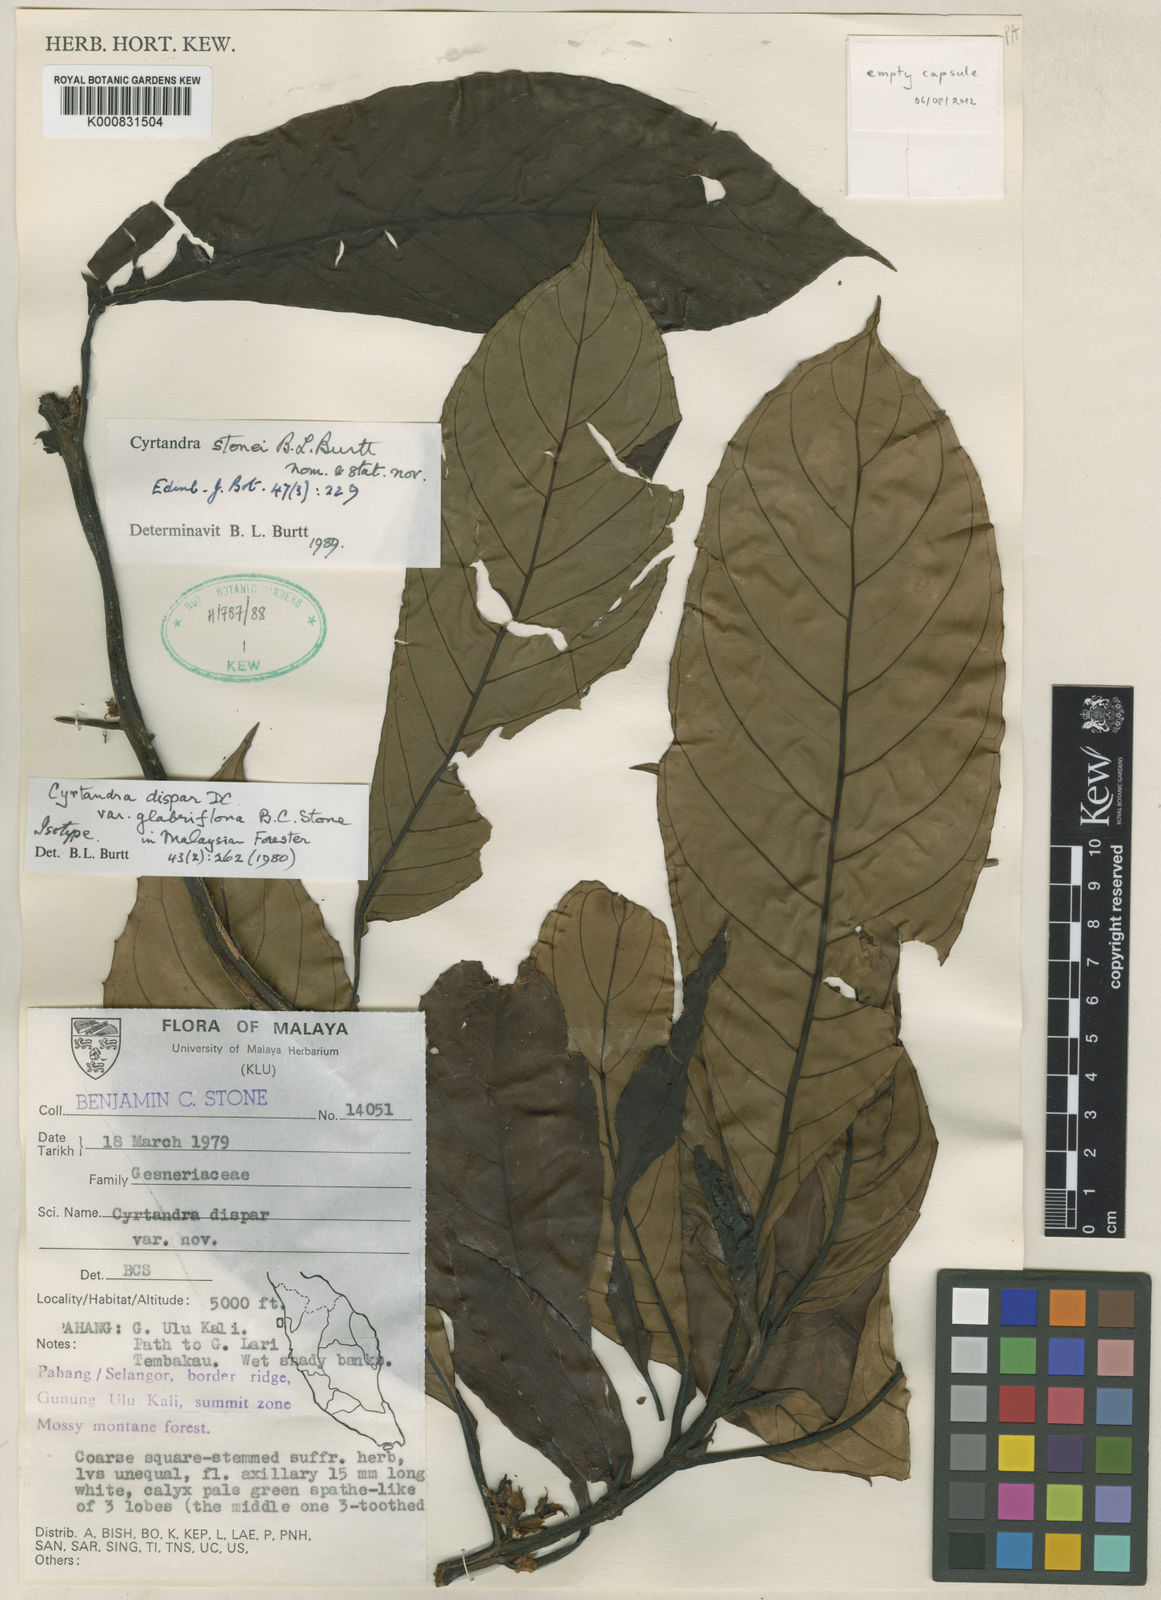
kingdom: Plantae
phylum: Tracheophyta
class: Magnoliopsida
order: Lamiales
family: Gesneriaceae
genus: Cyrtandra
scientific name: Cyrtandra stonei
